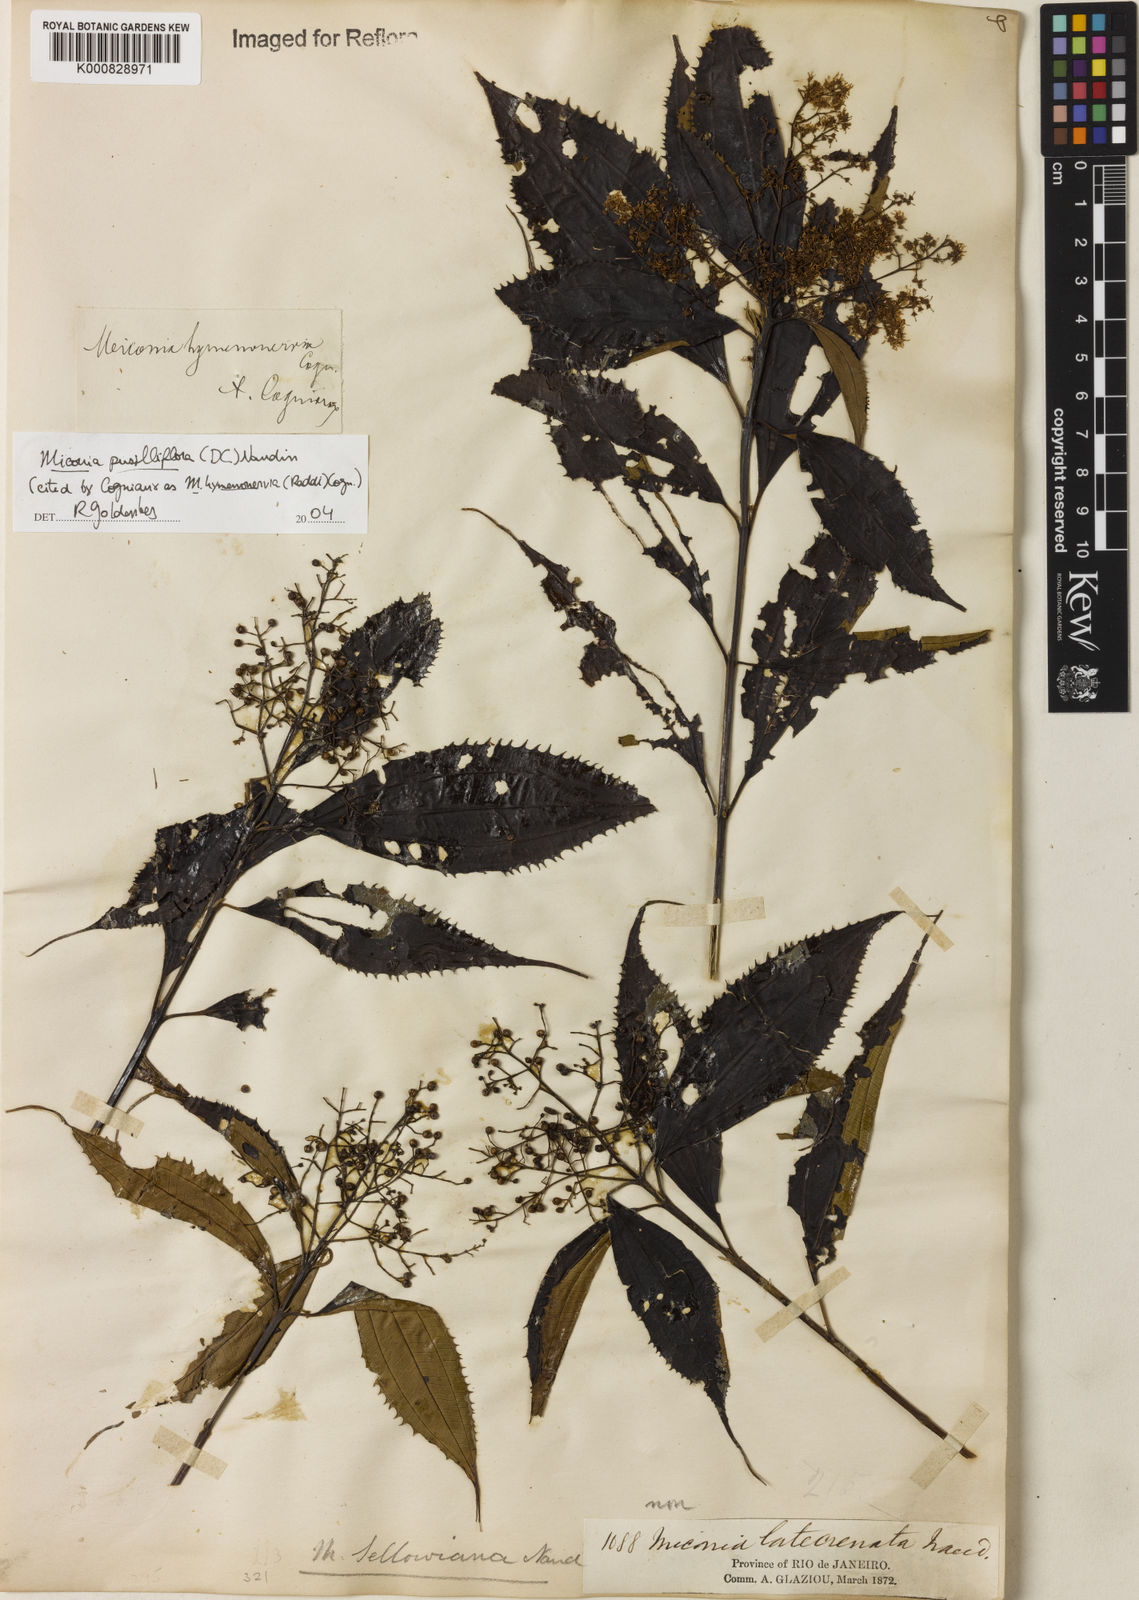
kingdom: Plantae
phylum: Tracheophyta
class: Magnoliopsida
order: Myrtales
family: Melastomataceae
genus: Miconia
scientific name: Miconia pusilliflora
